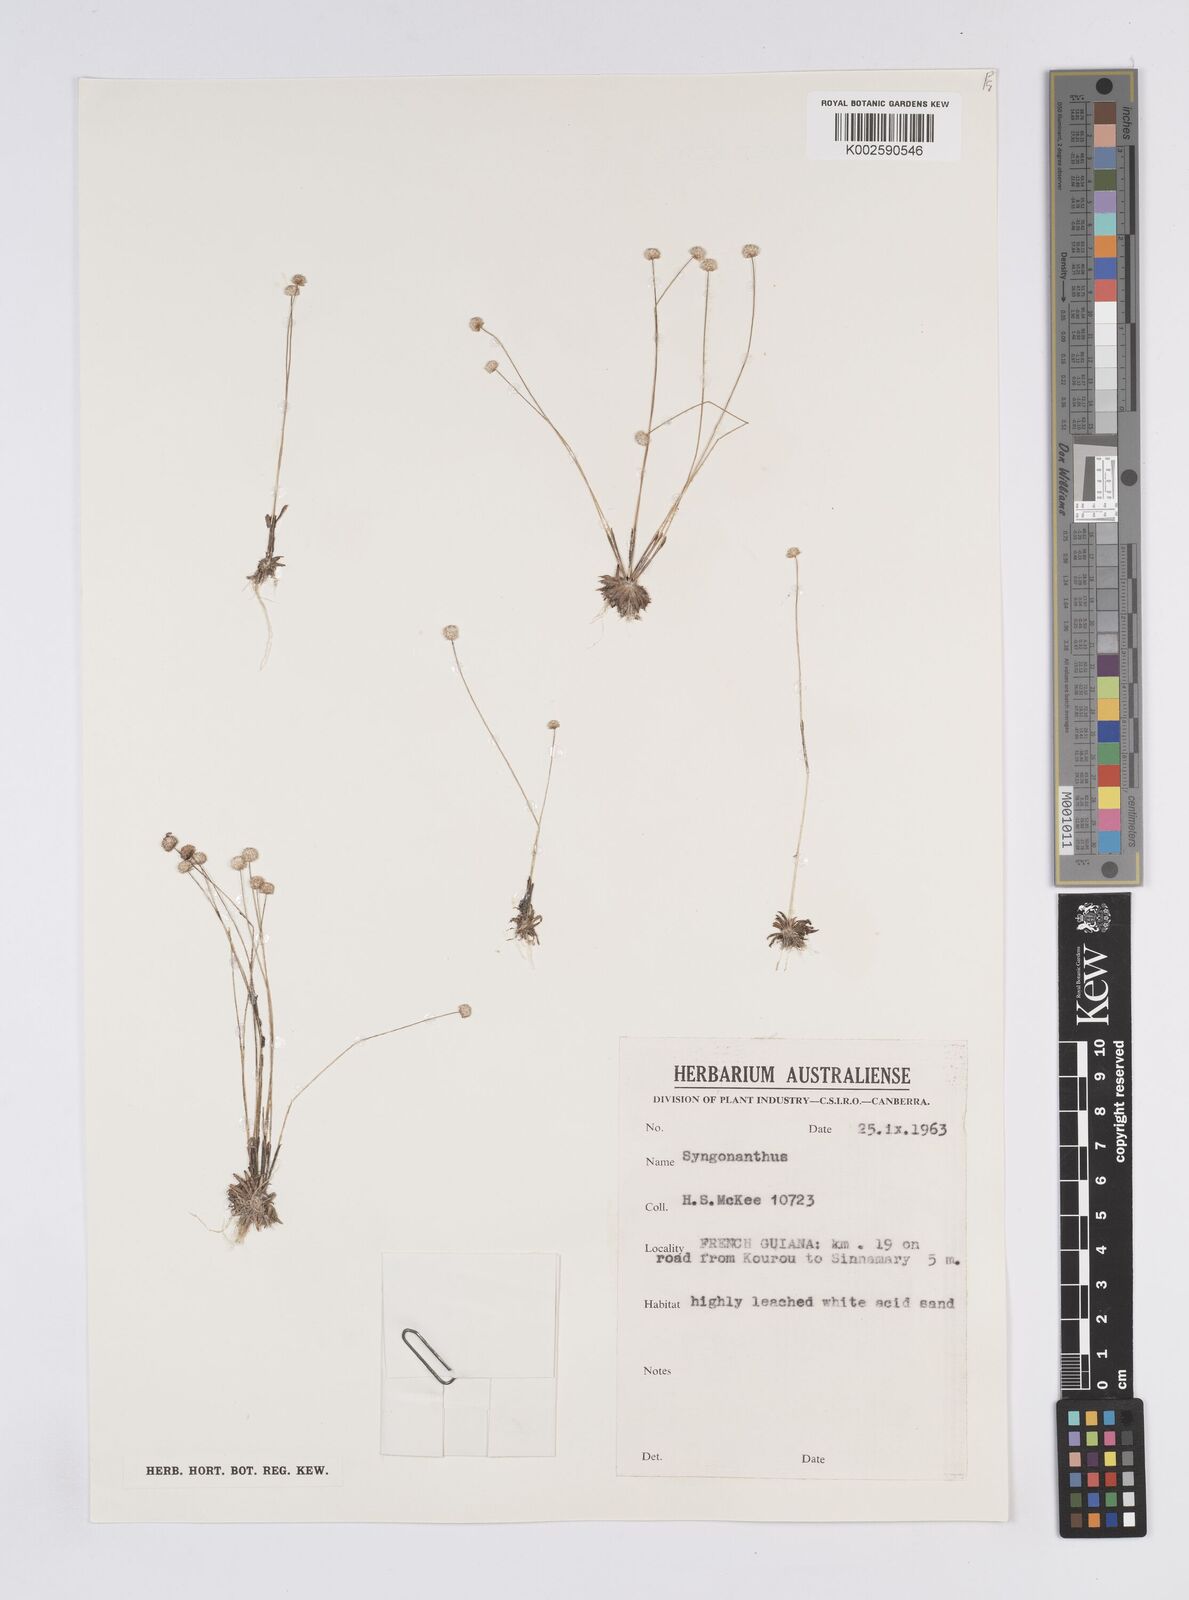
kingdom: Plantae
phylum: Tracheophyta
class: Liliopsida
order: Poales
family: Eriocaulaceae
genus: Syngonanthus
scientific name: Syngonanthus
